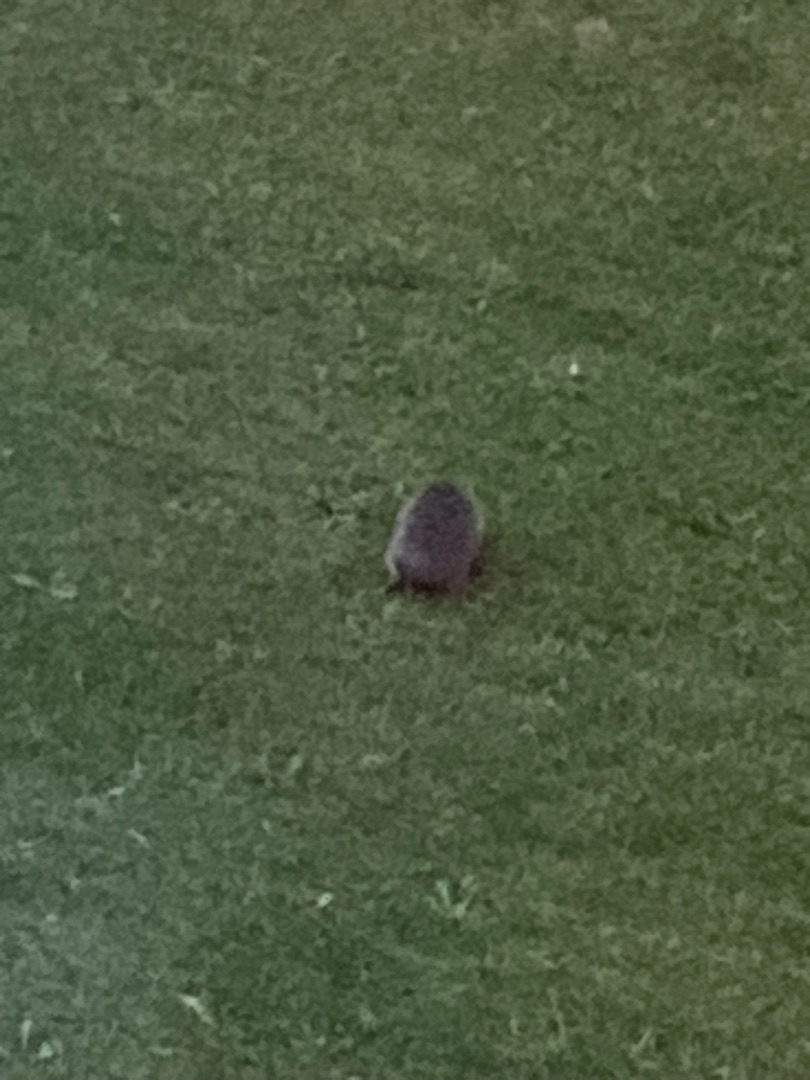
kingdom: Animalia
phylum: Chordata
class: Mammalia
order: Erinaceomorpha
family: Erinaceidae
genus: Erinaceus
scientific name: Erinaceus europaeus
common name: Pindsvin
